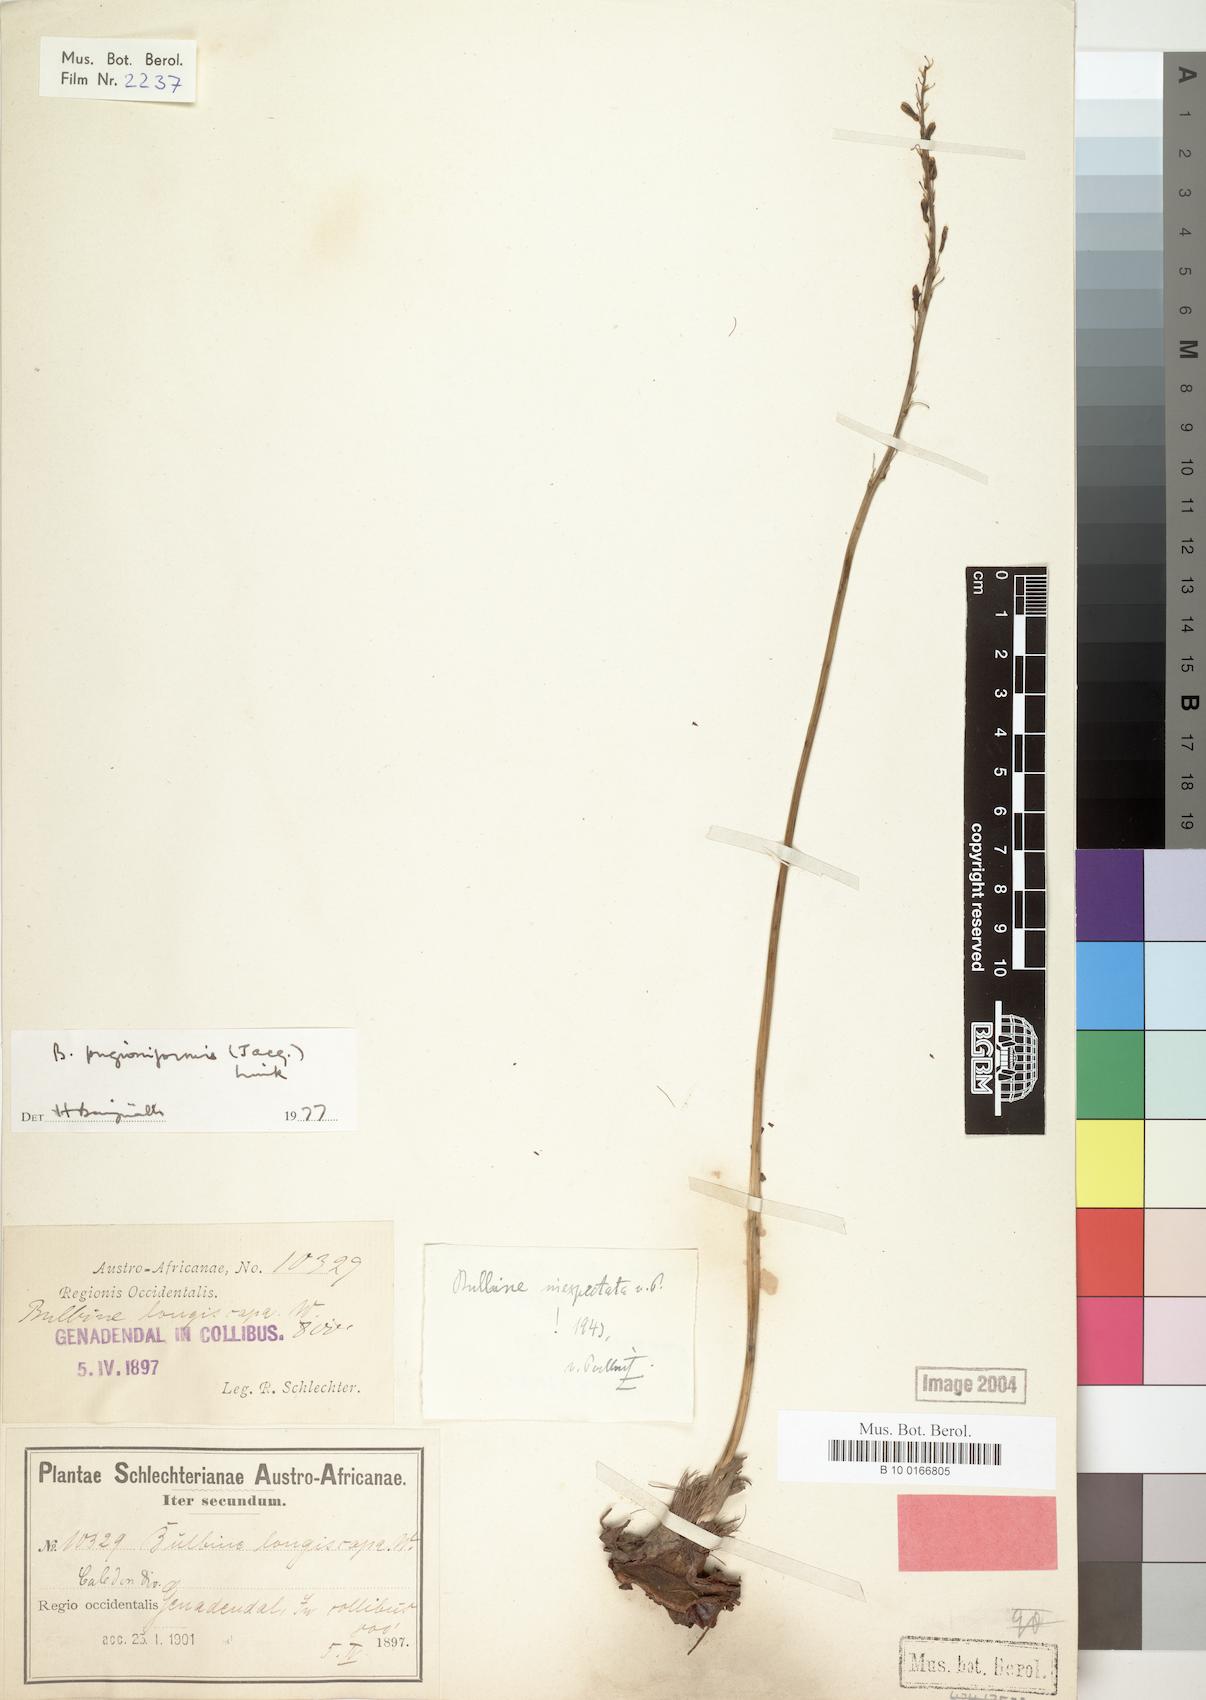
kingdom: Plantae
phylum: Tracheophyta
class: Liliopsida
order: Asparagales
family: Asphodelaceae
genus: Bulbine
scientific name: Bulbine cepacea
